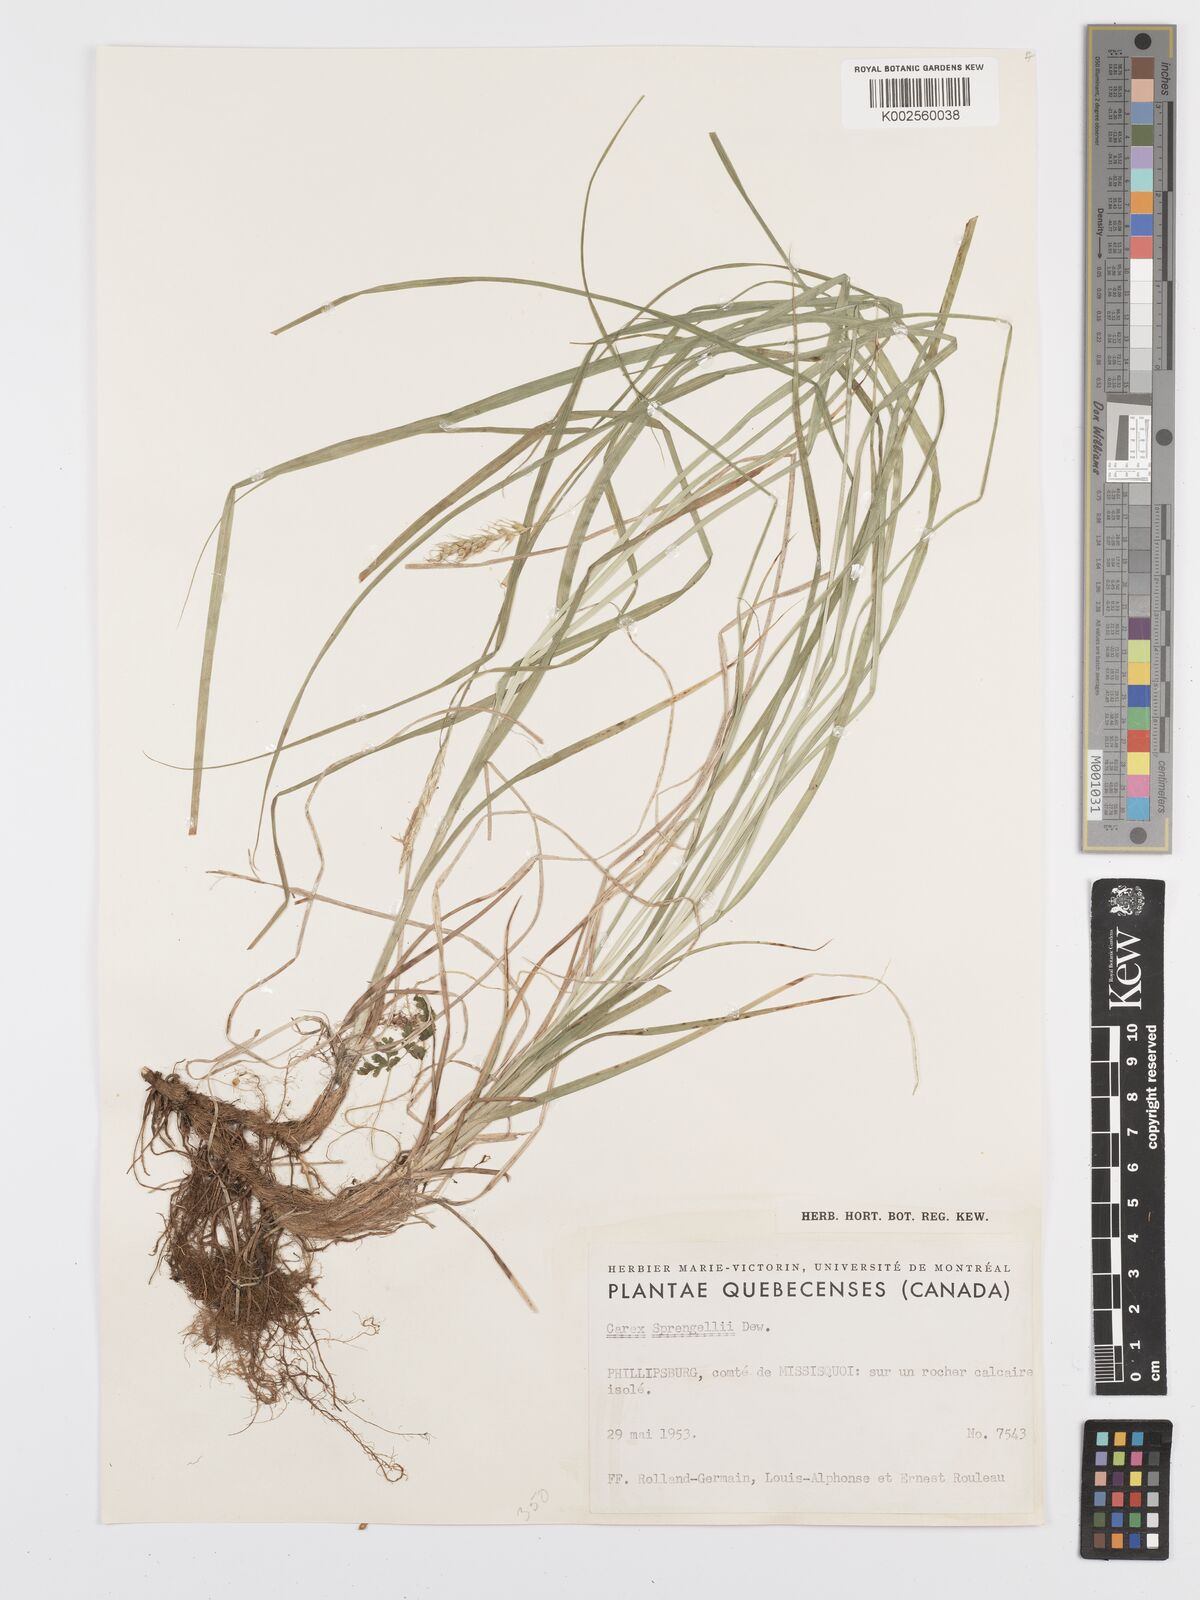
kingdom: Plantae
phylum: Tracheophyta
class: Liliopsida
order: Poales
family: Cyperaceae
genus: Carex
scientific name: Carex sprengelii
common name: Long-beaked sedge
